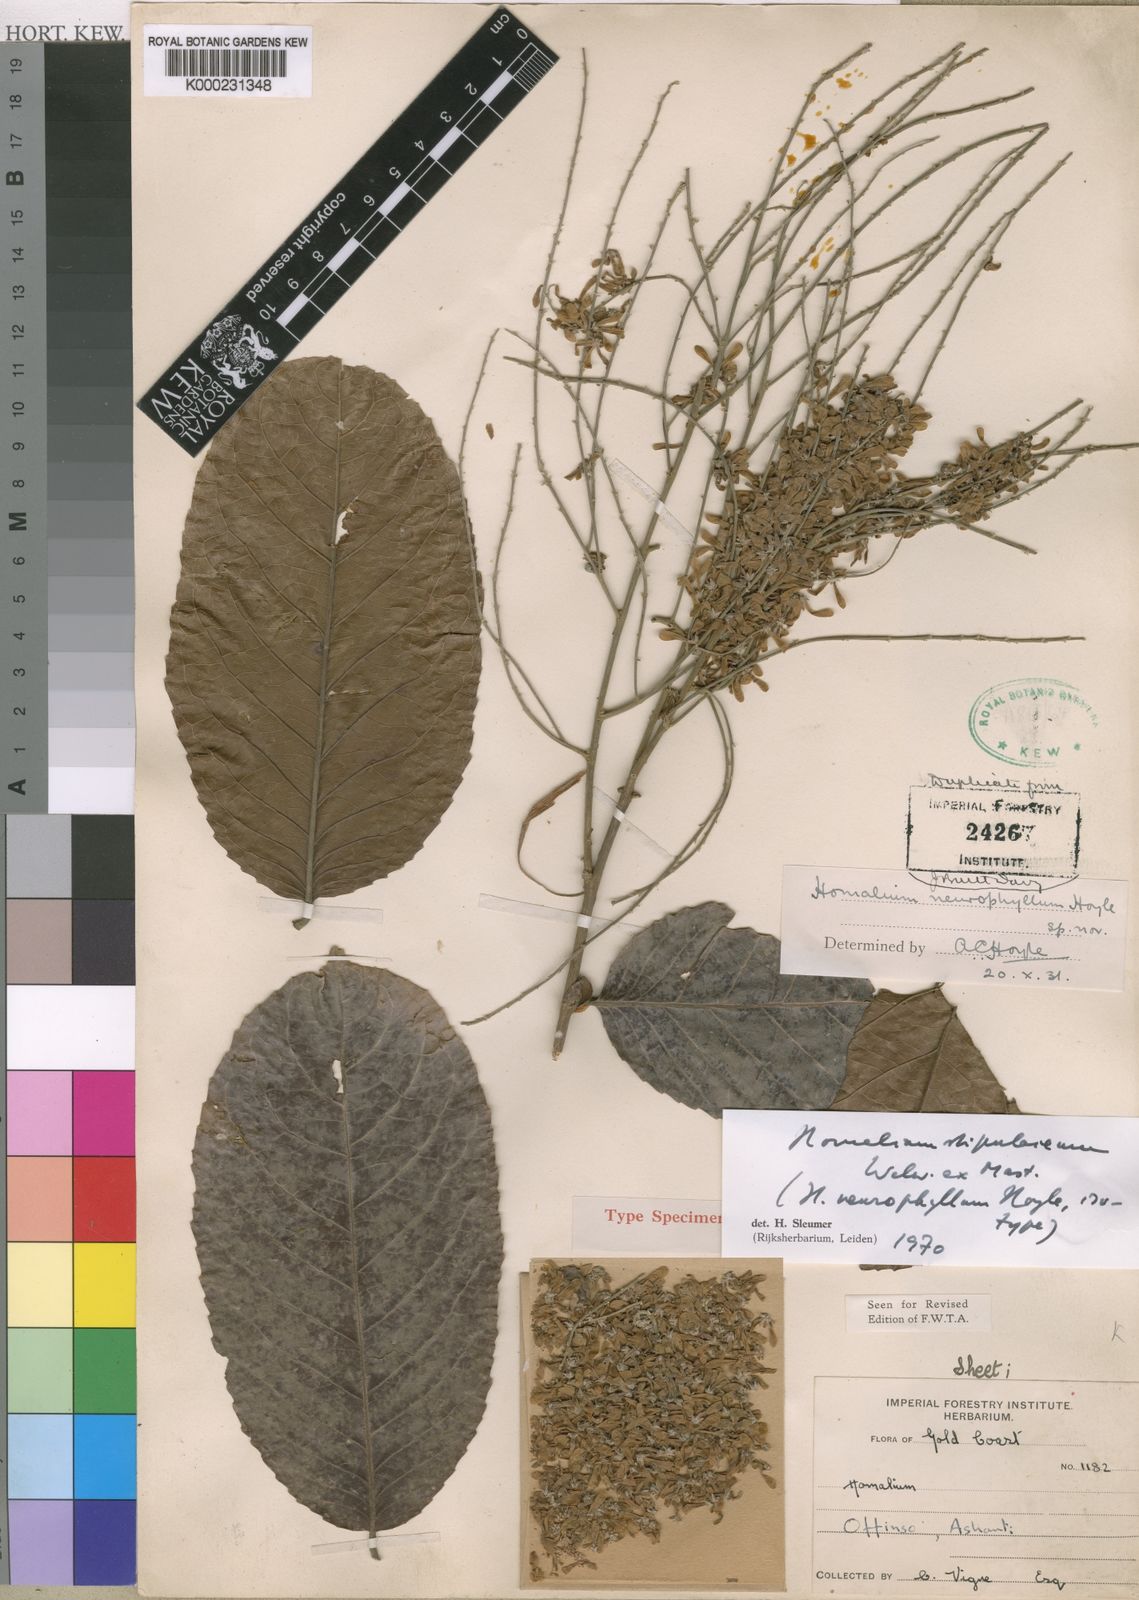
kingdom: Plantae
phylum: Tracheophyta
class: Magnoliopsida
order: Malpighiales
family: Salicaceae
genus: Homalium
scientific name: Homalium stipulaceum
